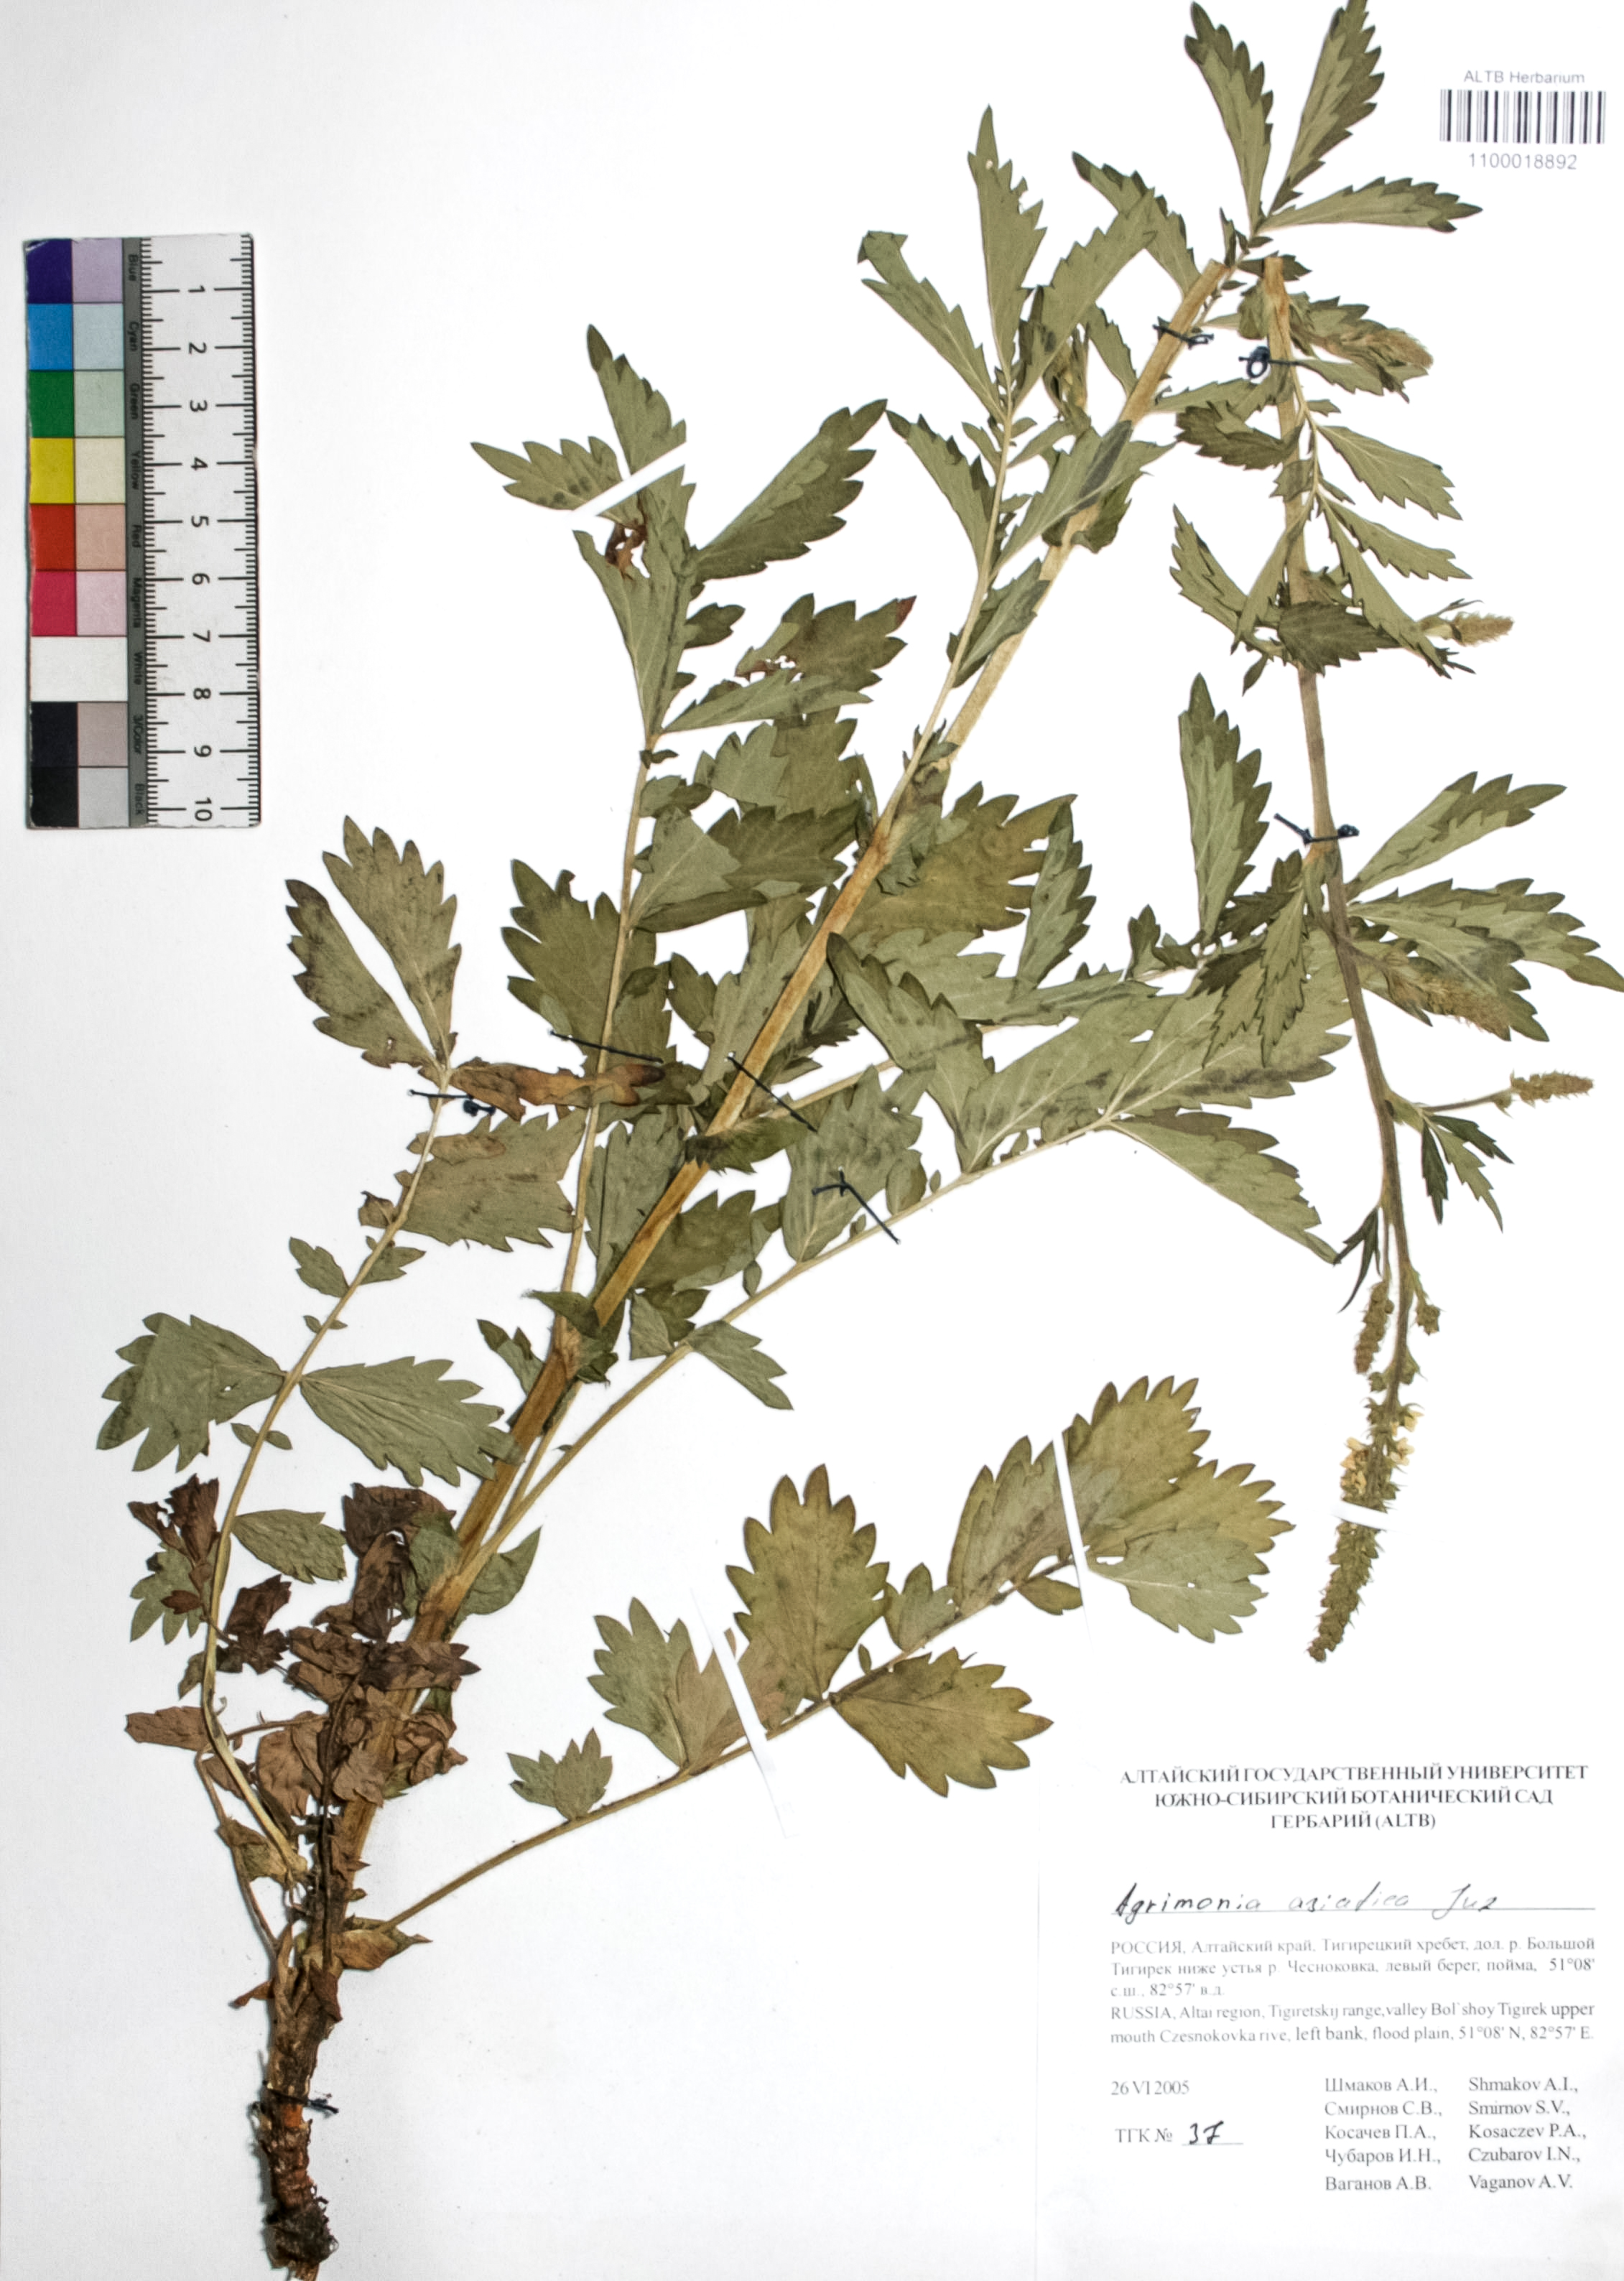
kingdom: Plantae
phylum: Tracheophyta
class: Magnoliopsida
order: Rosales
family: Rosaceae
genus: Agrimonia
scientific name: Agrimonia eupatoria
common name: Agrimony
